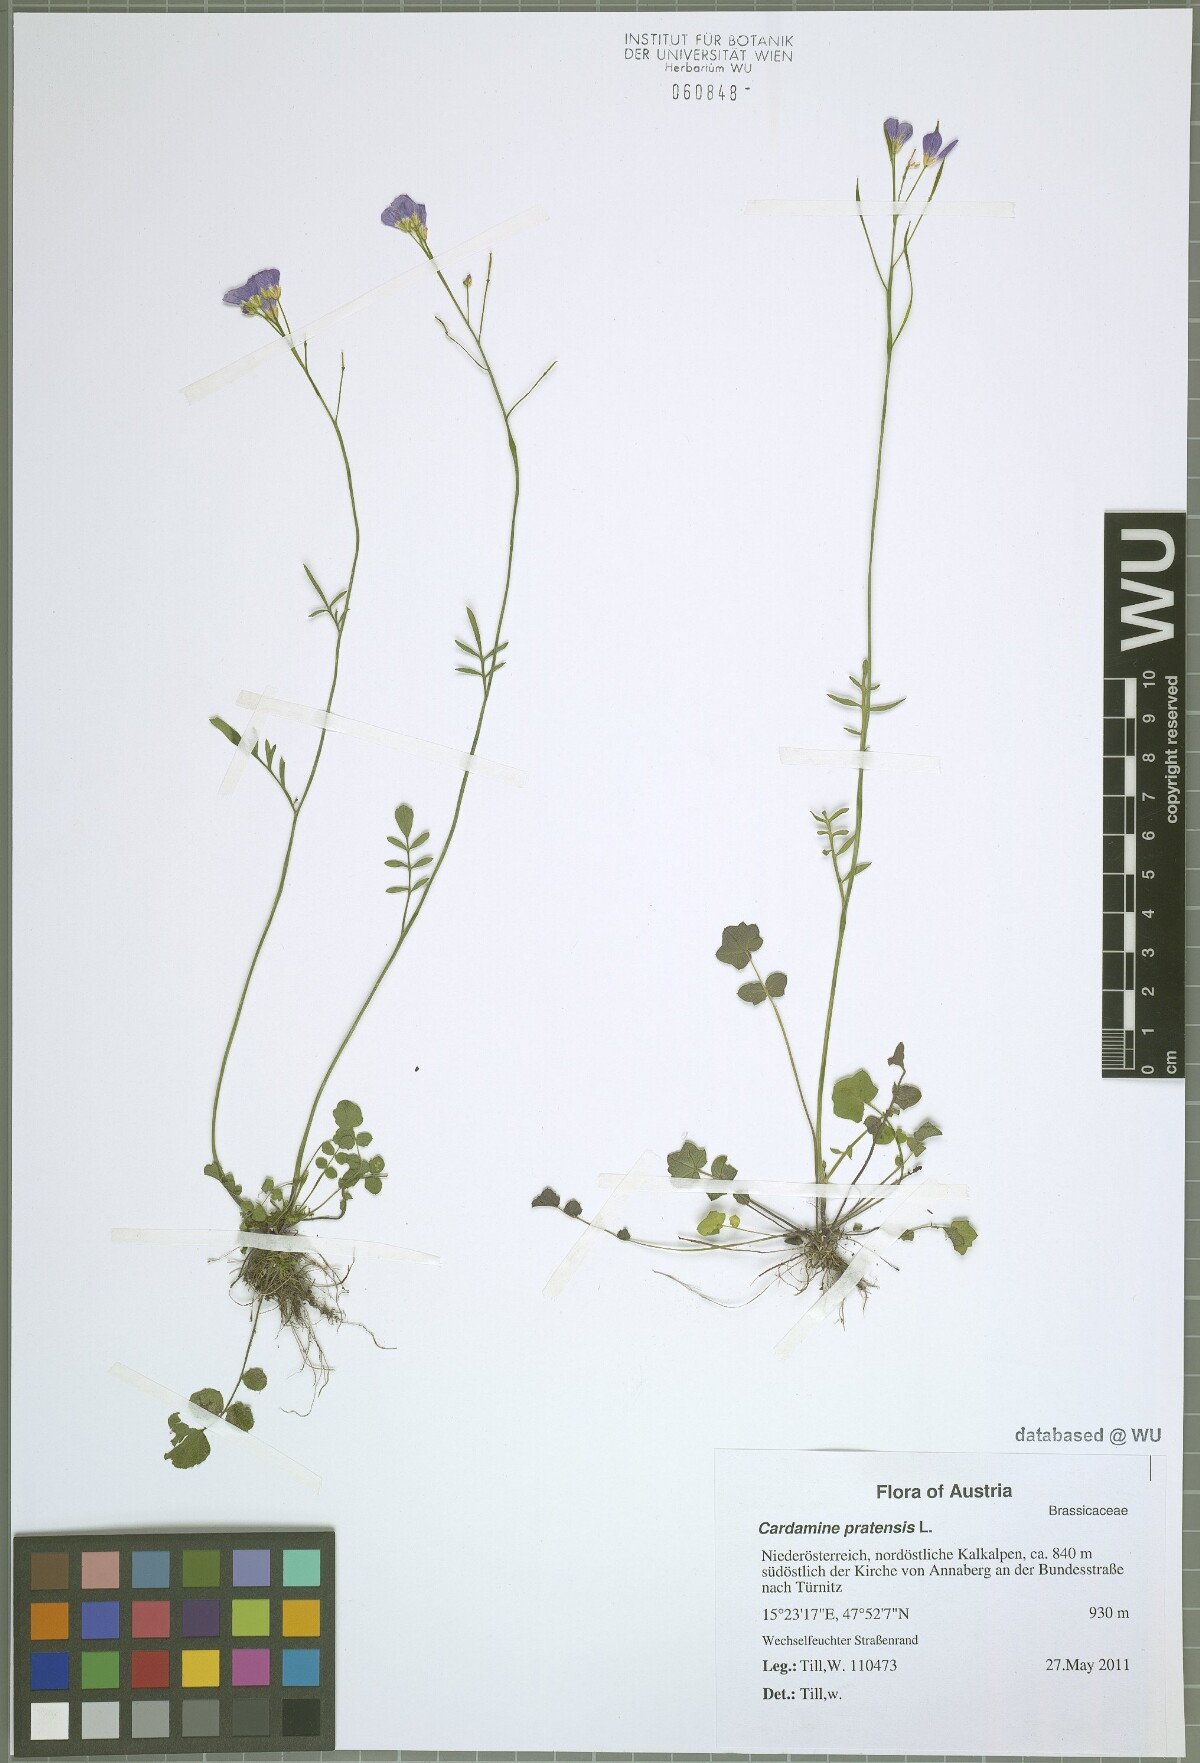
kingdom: Plantae
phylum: Tracheophyta
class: Magnoliopsida
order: Brassicales
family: Brassicaceae
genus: Cardamine
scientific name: Cardamine pratensis
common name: Cuckoo flower
